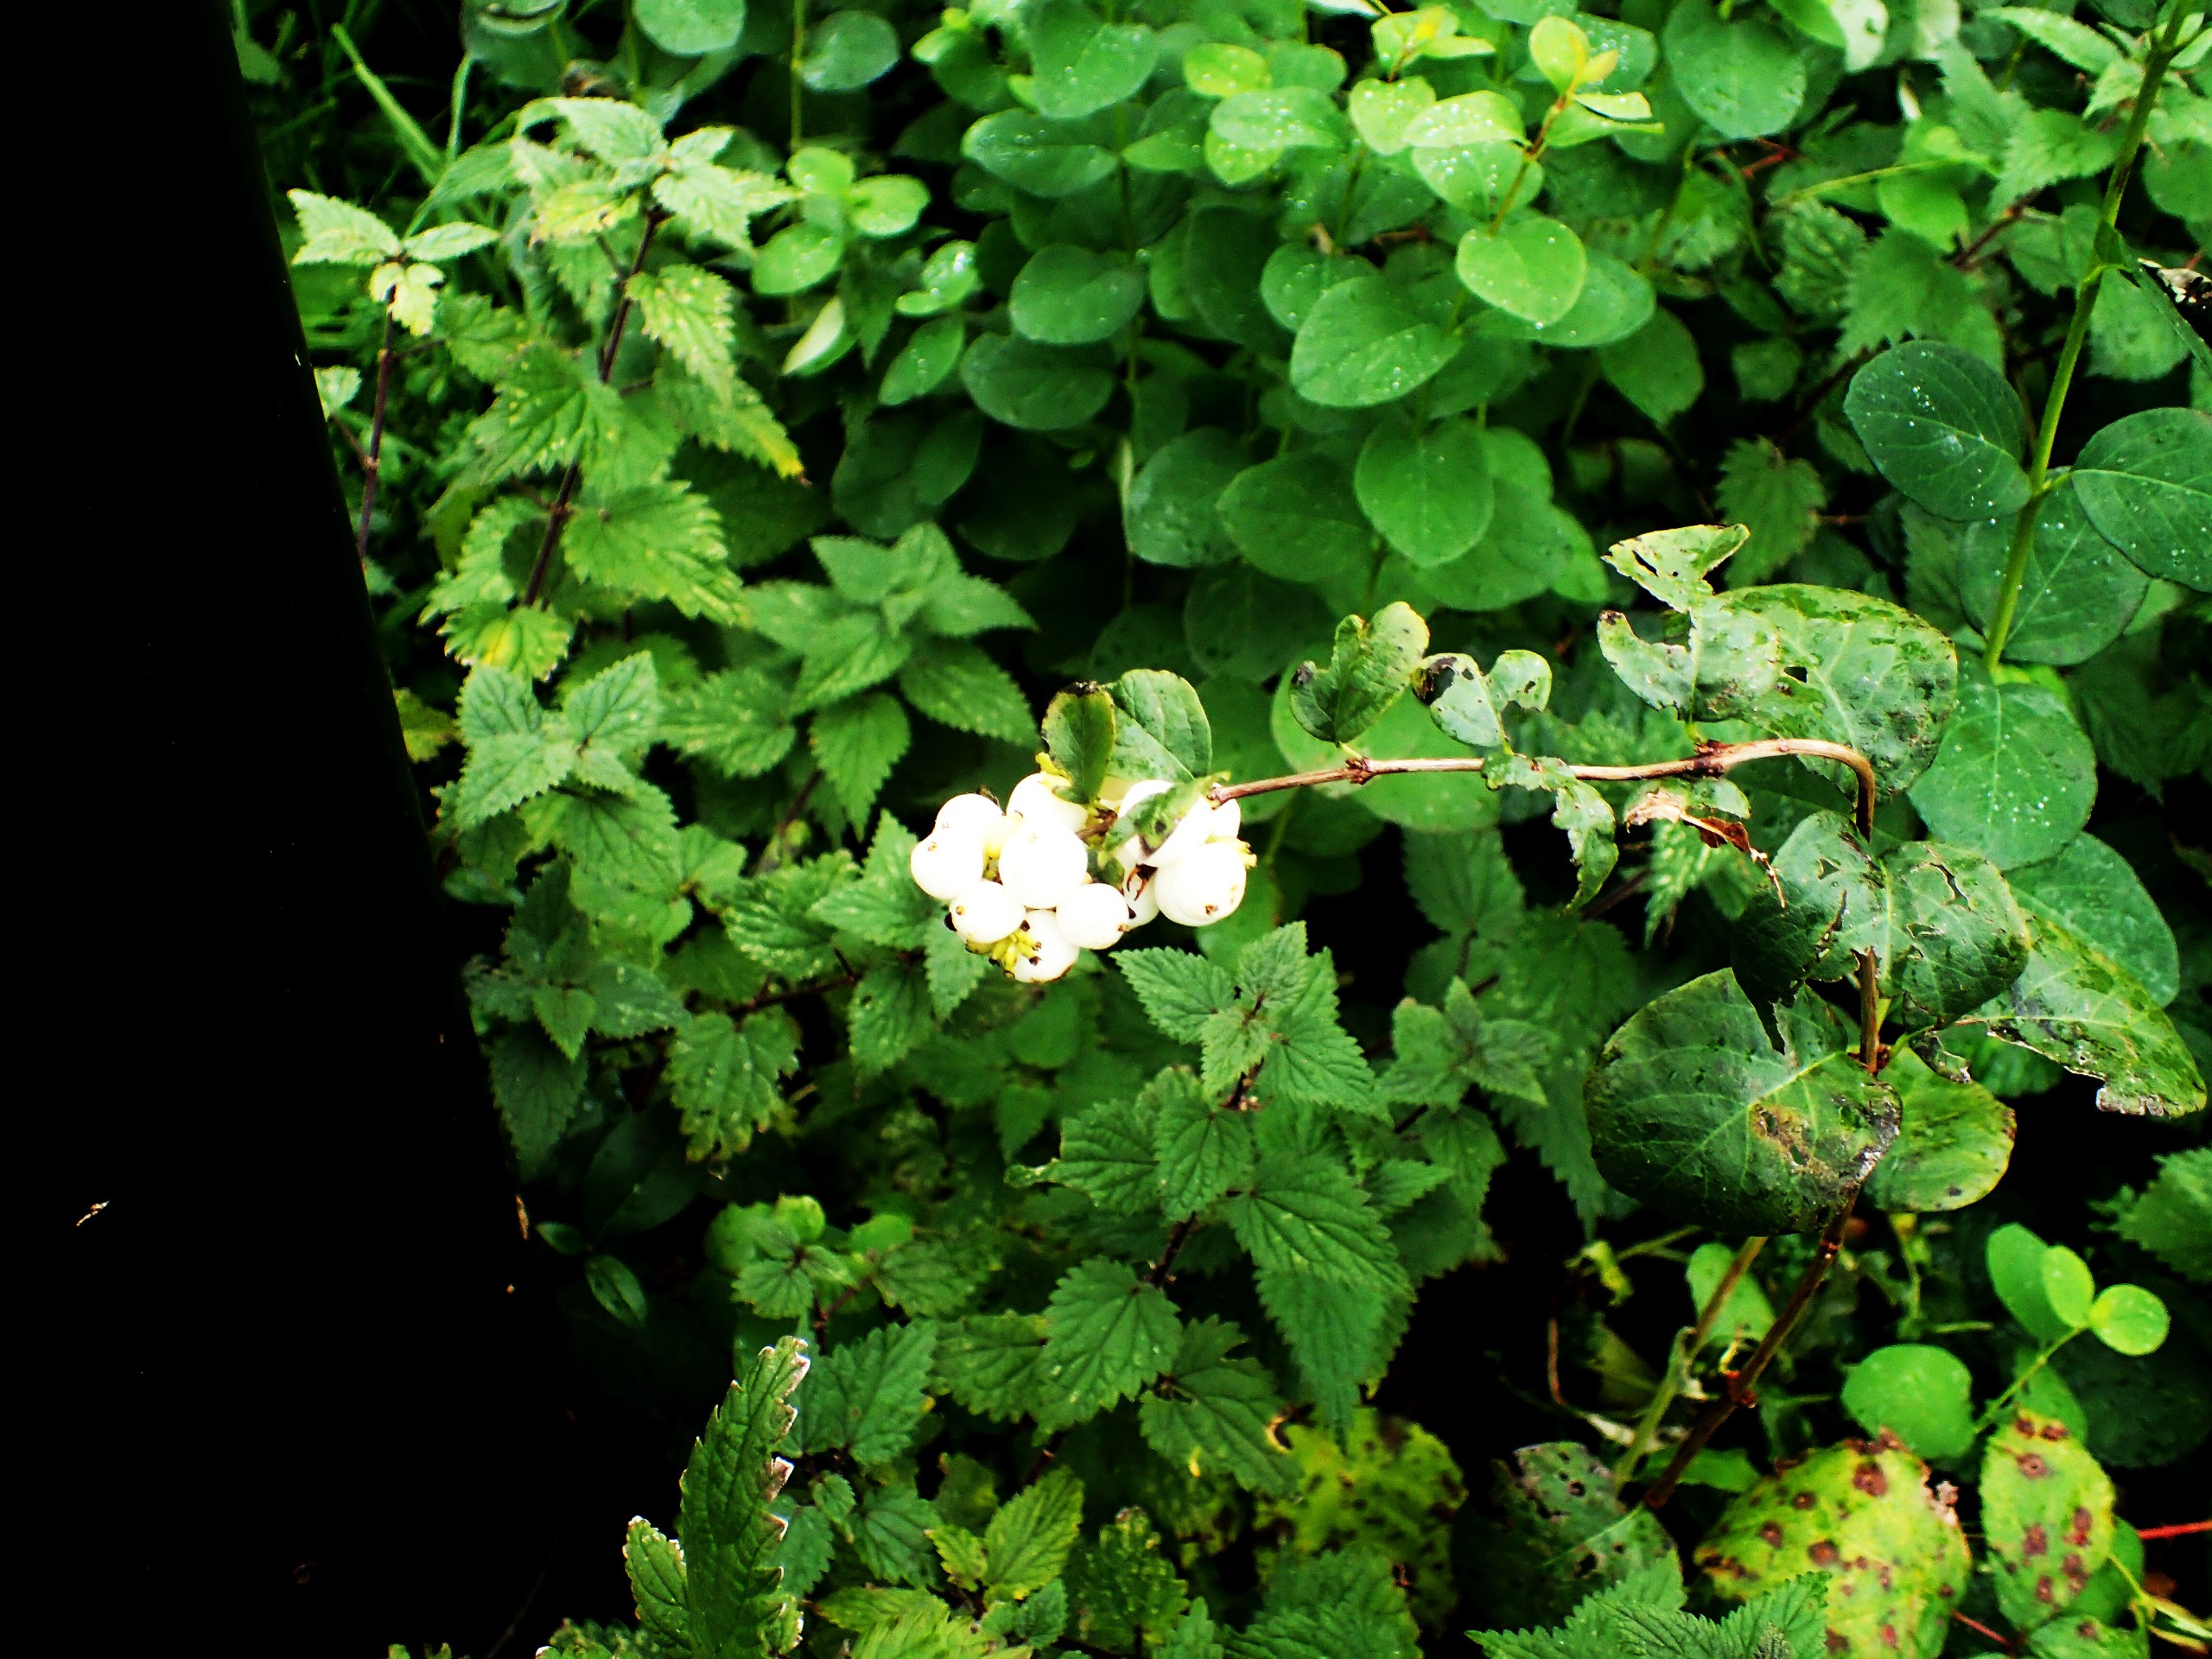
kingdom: Plantae
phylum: Tracheophyta
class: Magnoliopsida
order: Dipsacales
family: Caprifoliaceae
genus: Symphoricarpos
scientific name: Symphoricarpos albus
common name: Almindelig snebær
